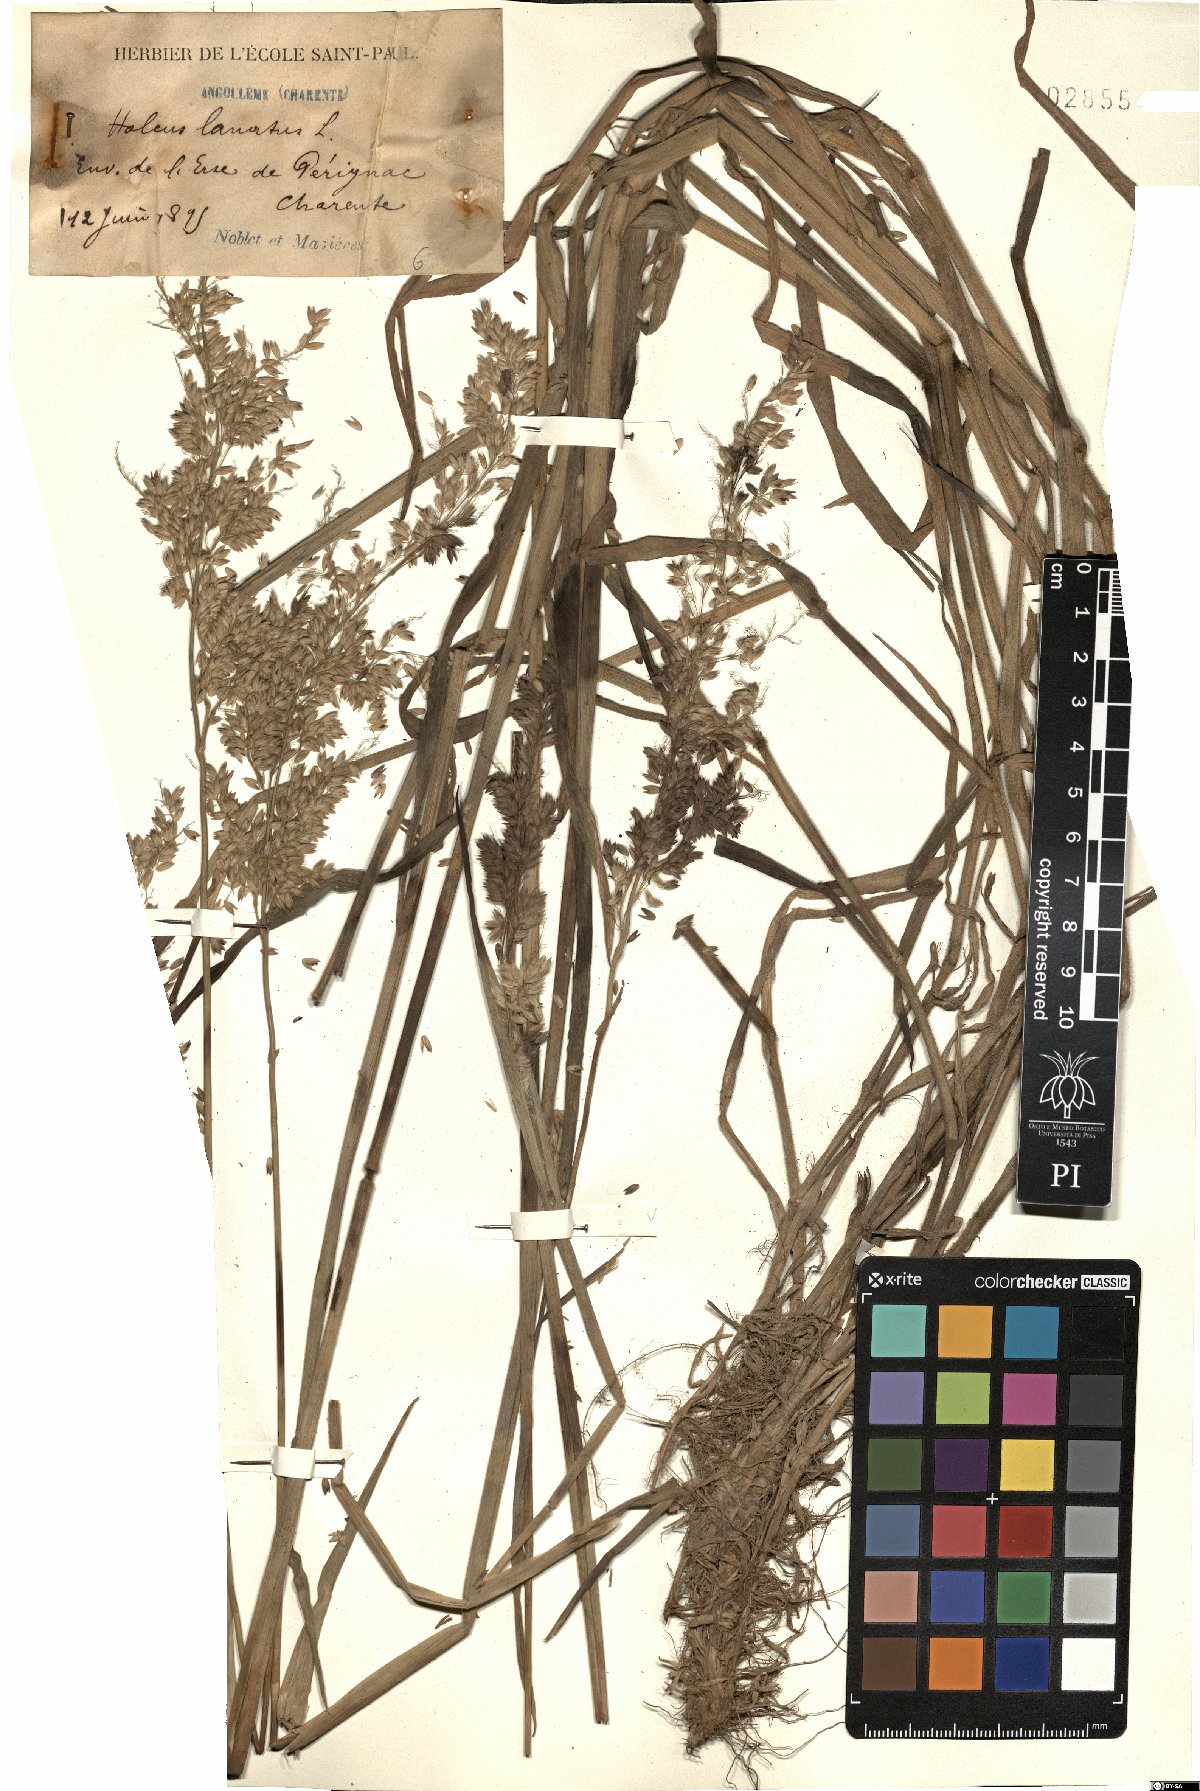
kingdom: Plantae
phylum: Tracheophyta
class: Liliopsida
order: Poales
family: Poaceae
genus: Holcus
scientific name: Holcus lanatus
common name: Yorkshire-fog
